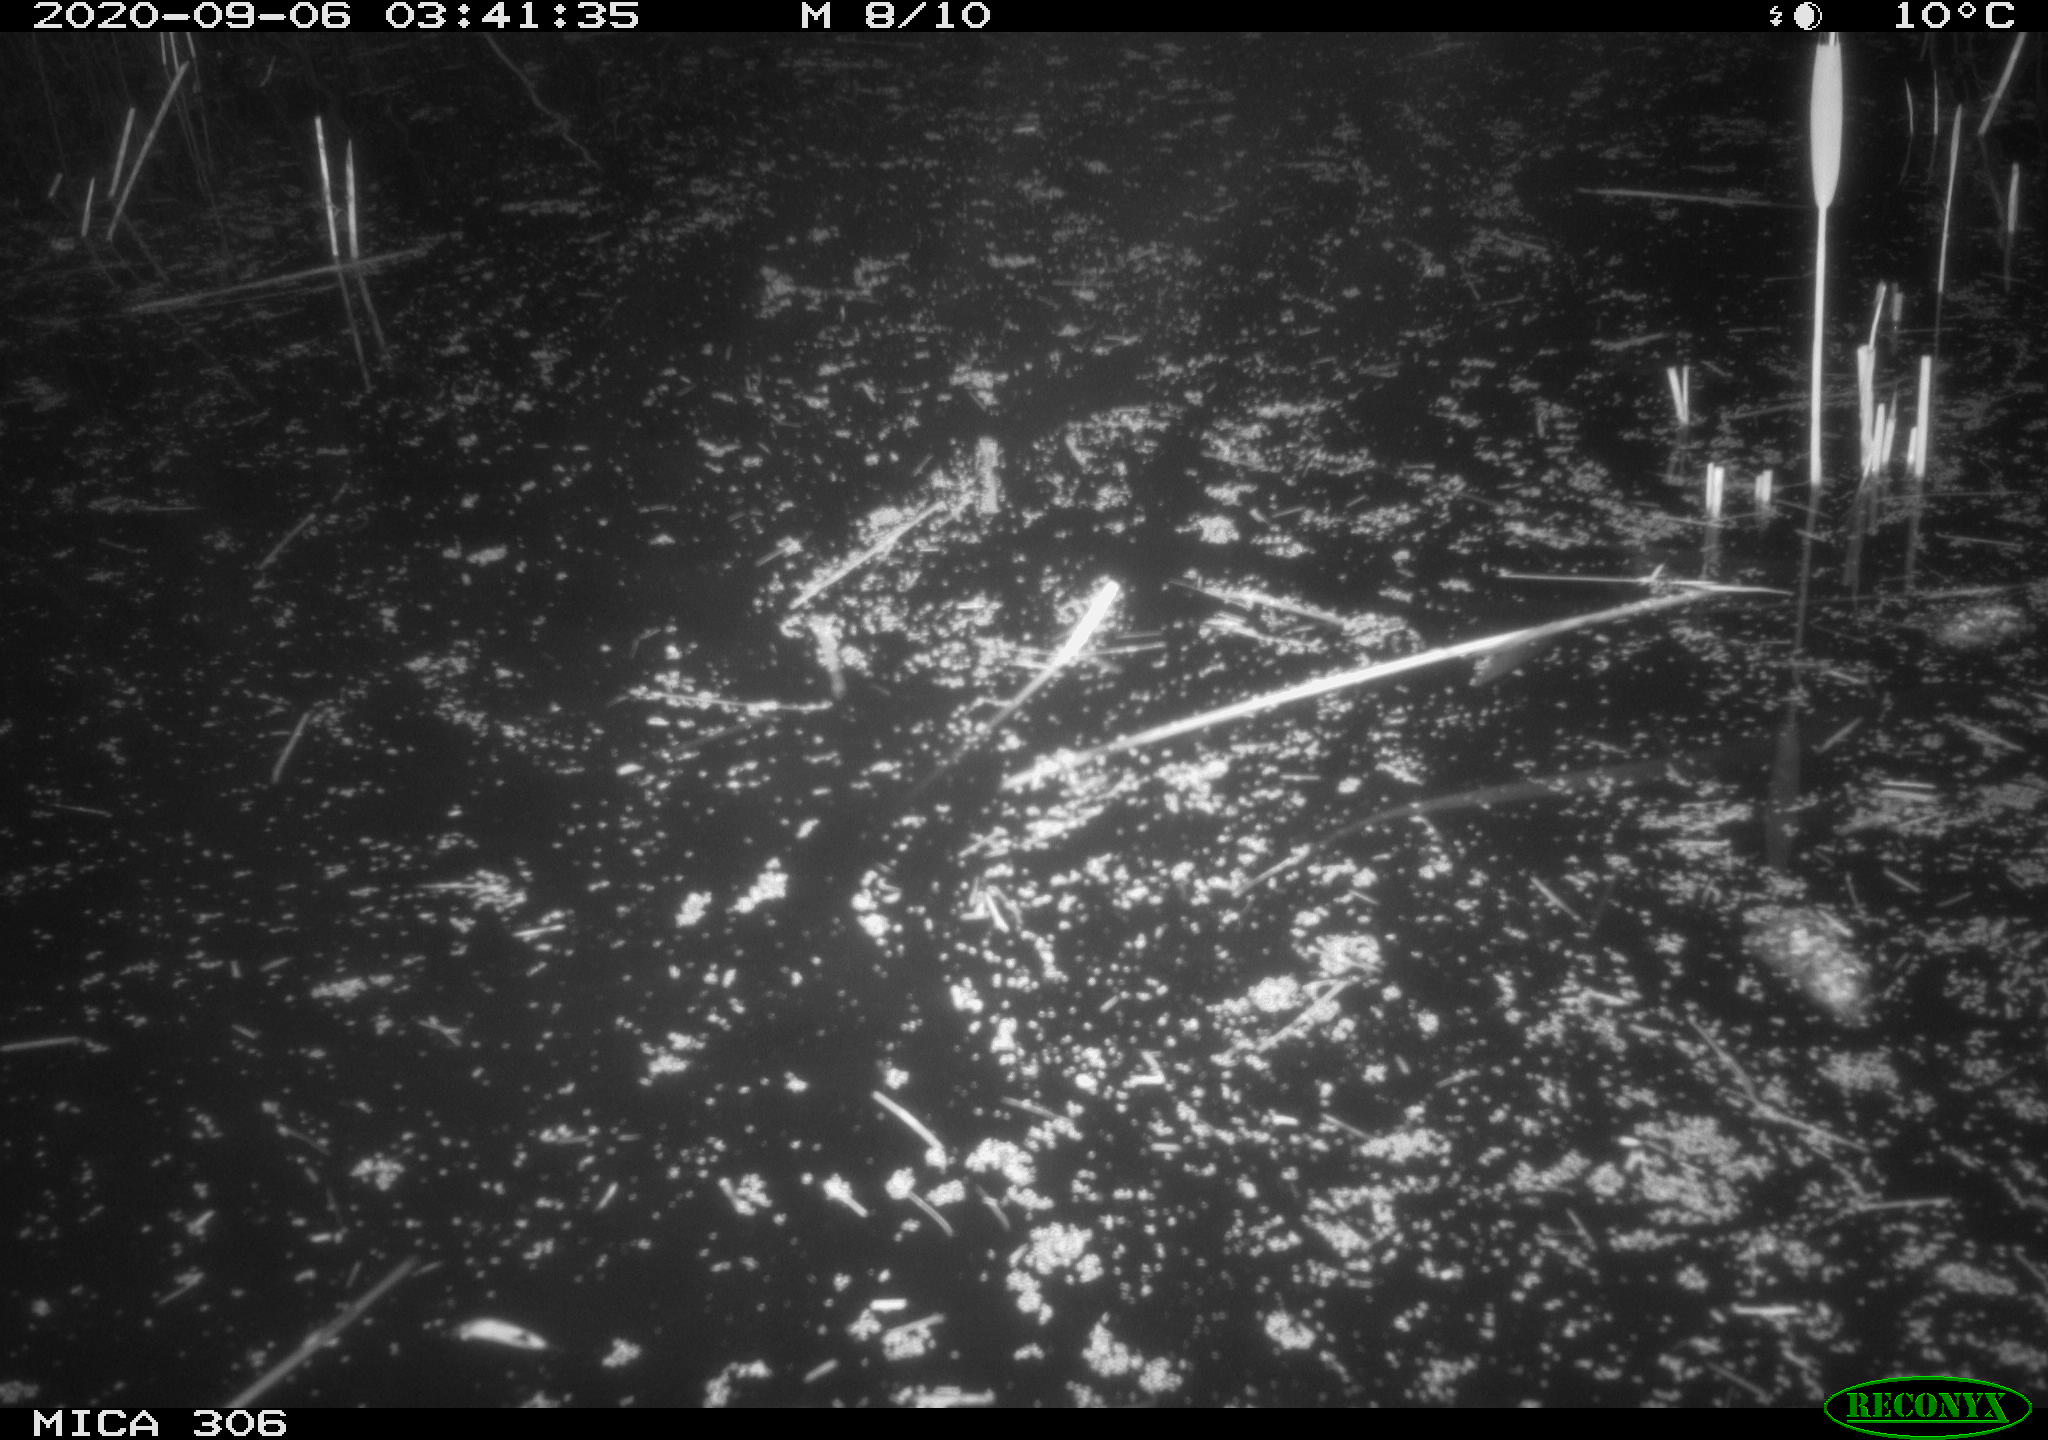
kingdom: Animalia
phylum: Chordata
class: Mammalia
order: Rodentia
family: Muridae
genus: Rattus
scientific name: Rattus norvegicus
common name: Brown rat
